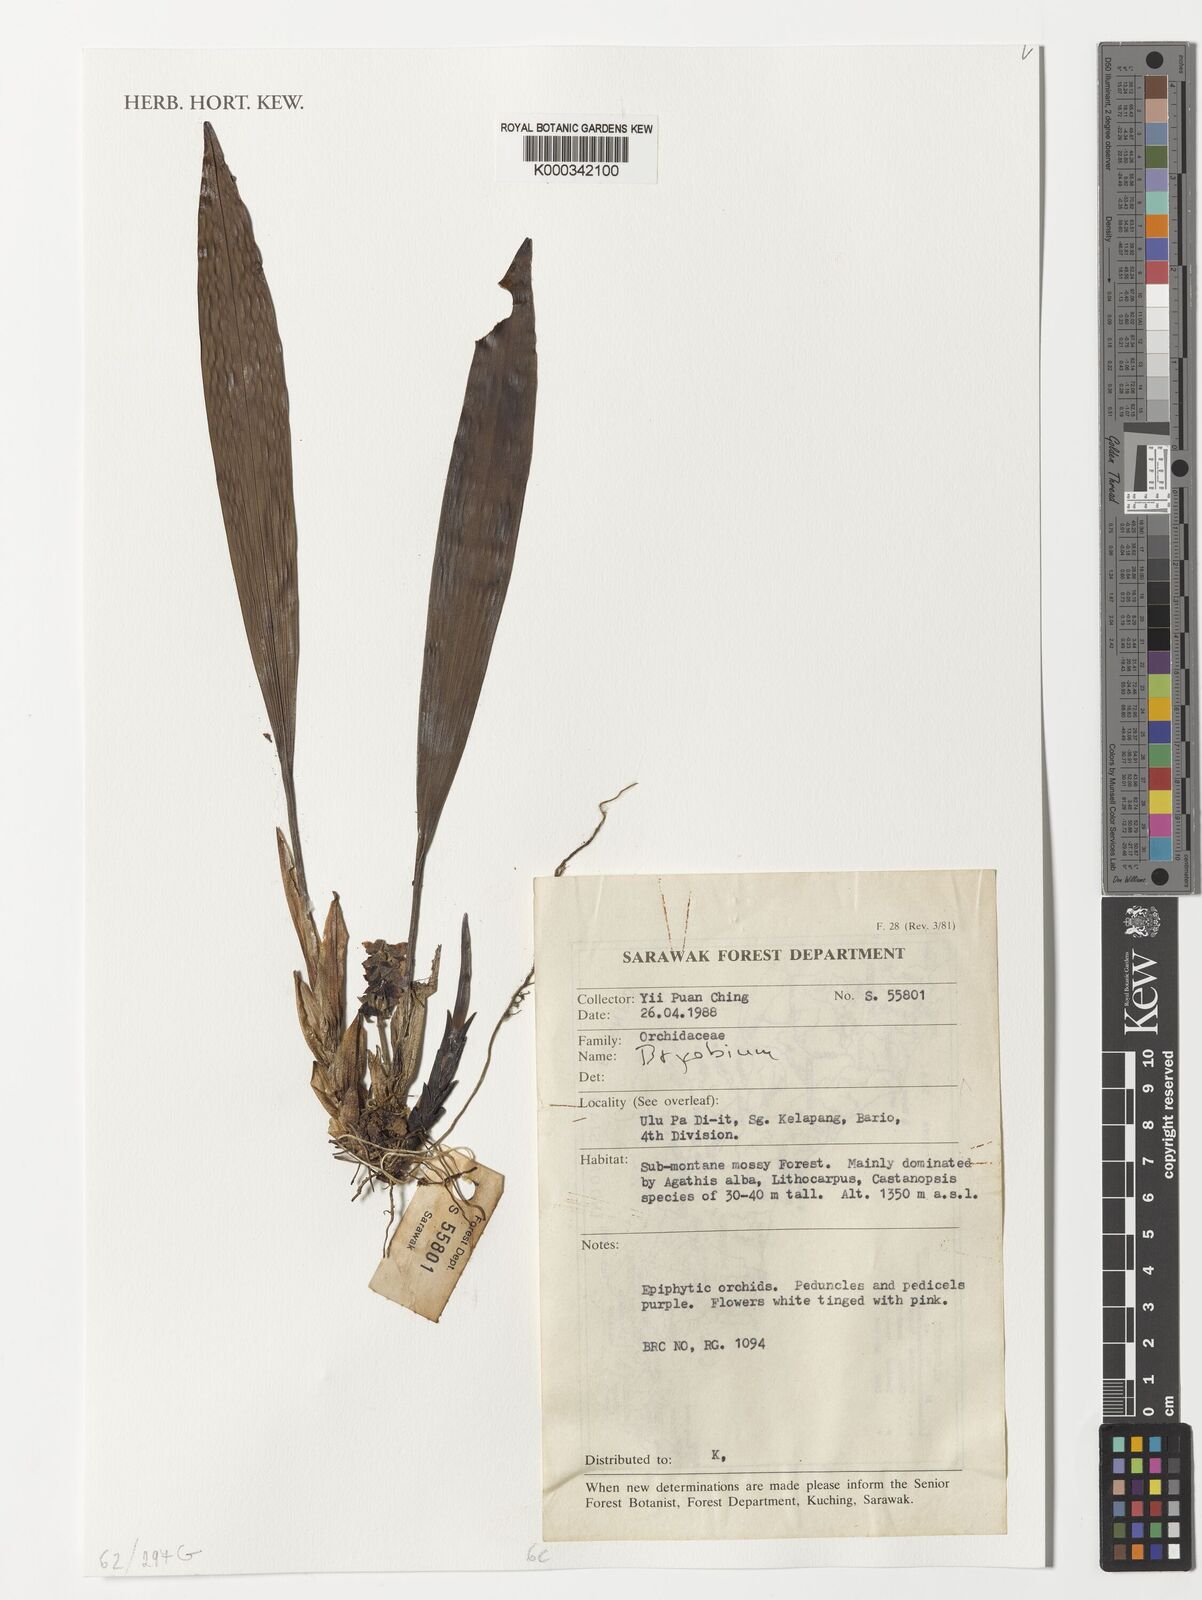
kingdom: Plantae
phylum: Tracheophyta
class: Liliopsida
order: Asparagales
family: Orchidaceae
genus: Bryobium
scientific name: Bryobium
